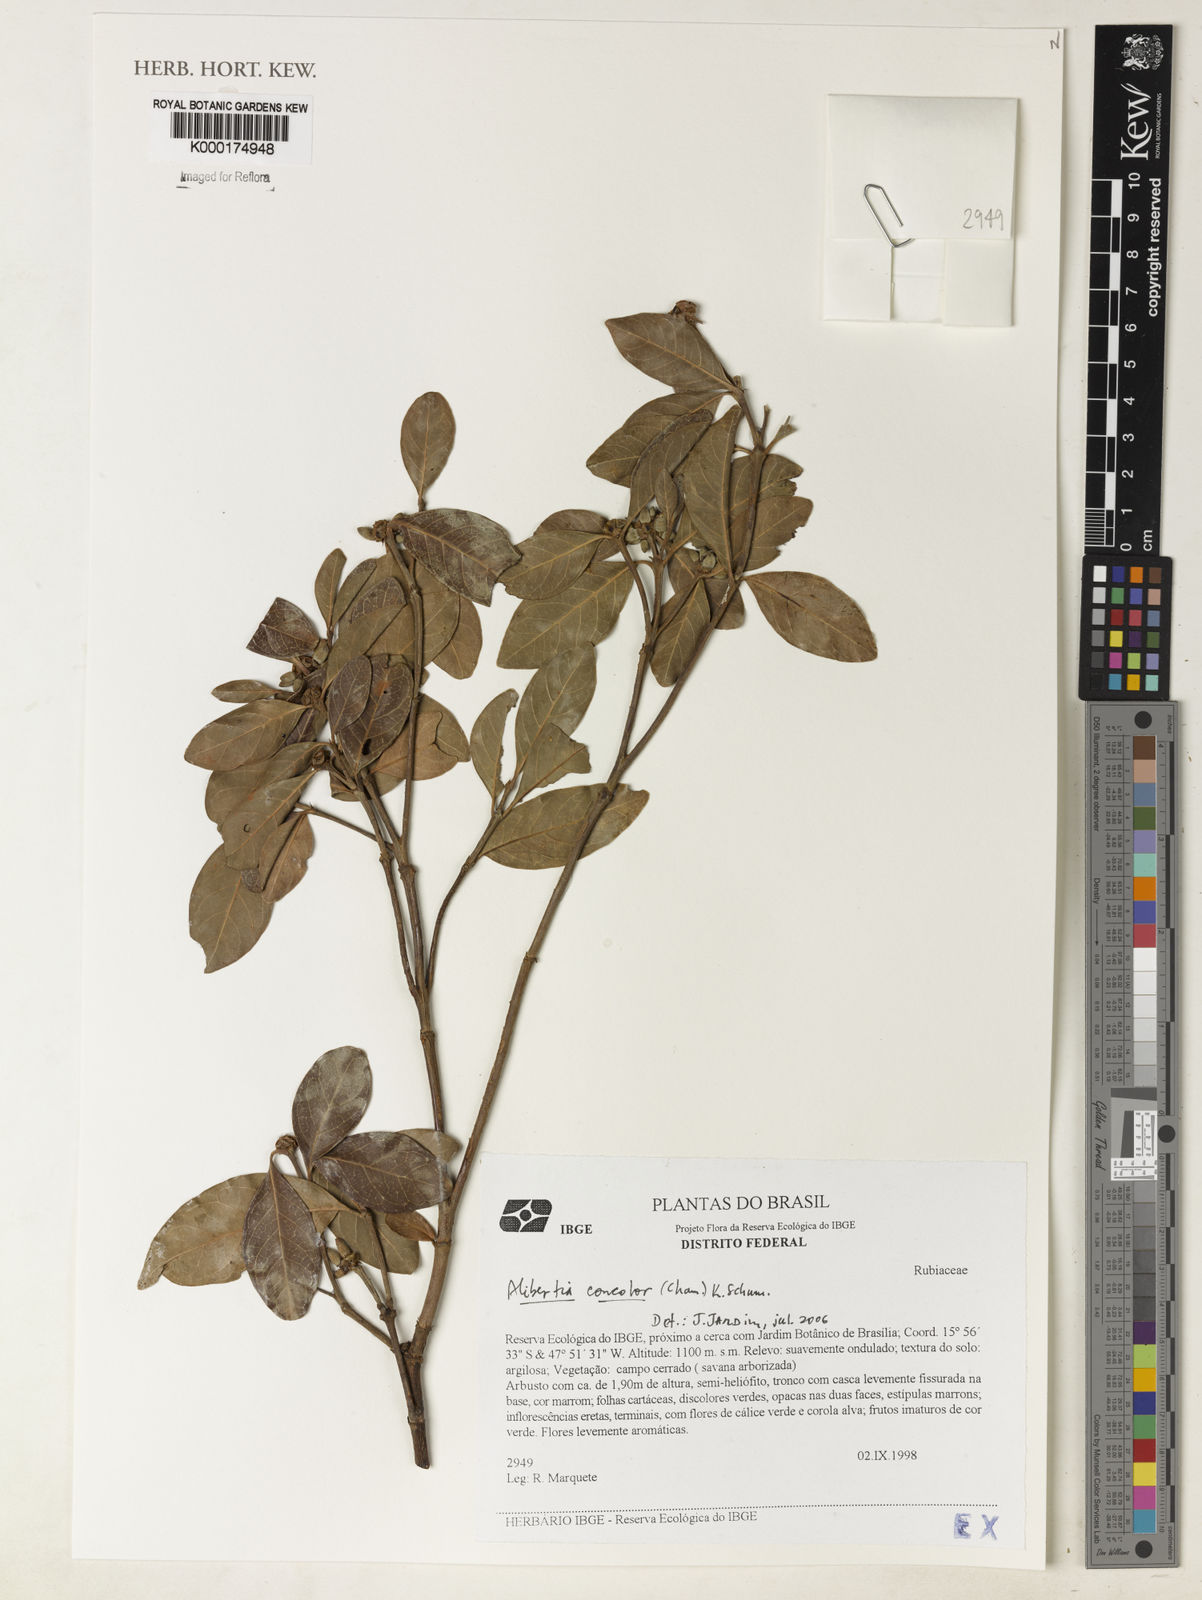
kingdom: Plantae
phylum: Tracheophyta
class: Magnoliopsida
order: Gentianales
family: Rubiaceae
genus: Cordiera
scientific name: Cordiera concolor
